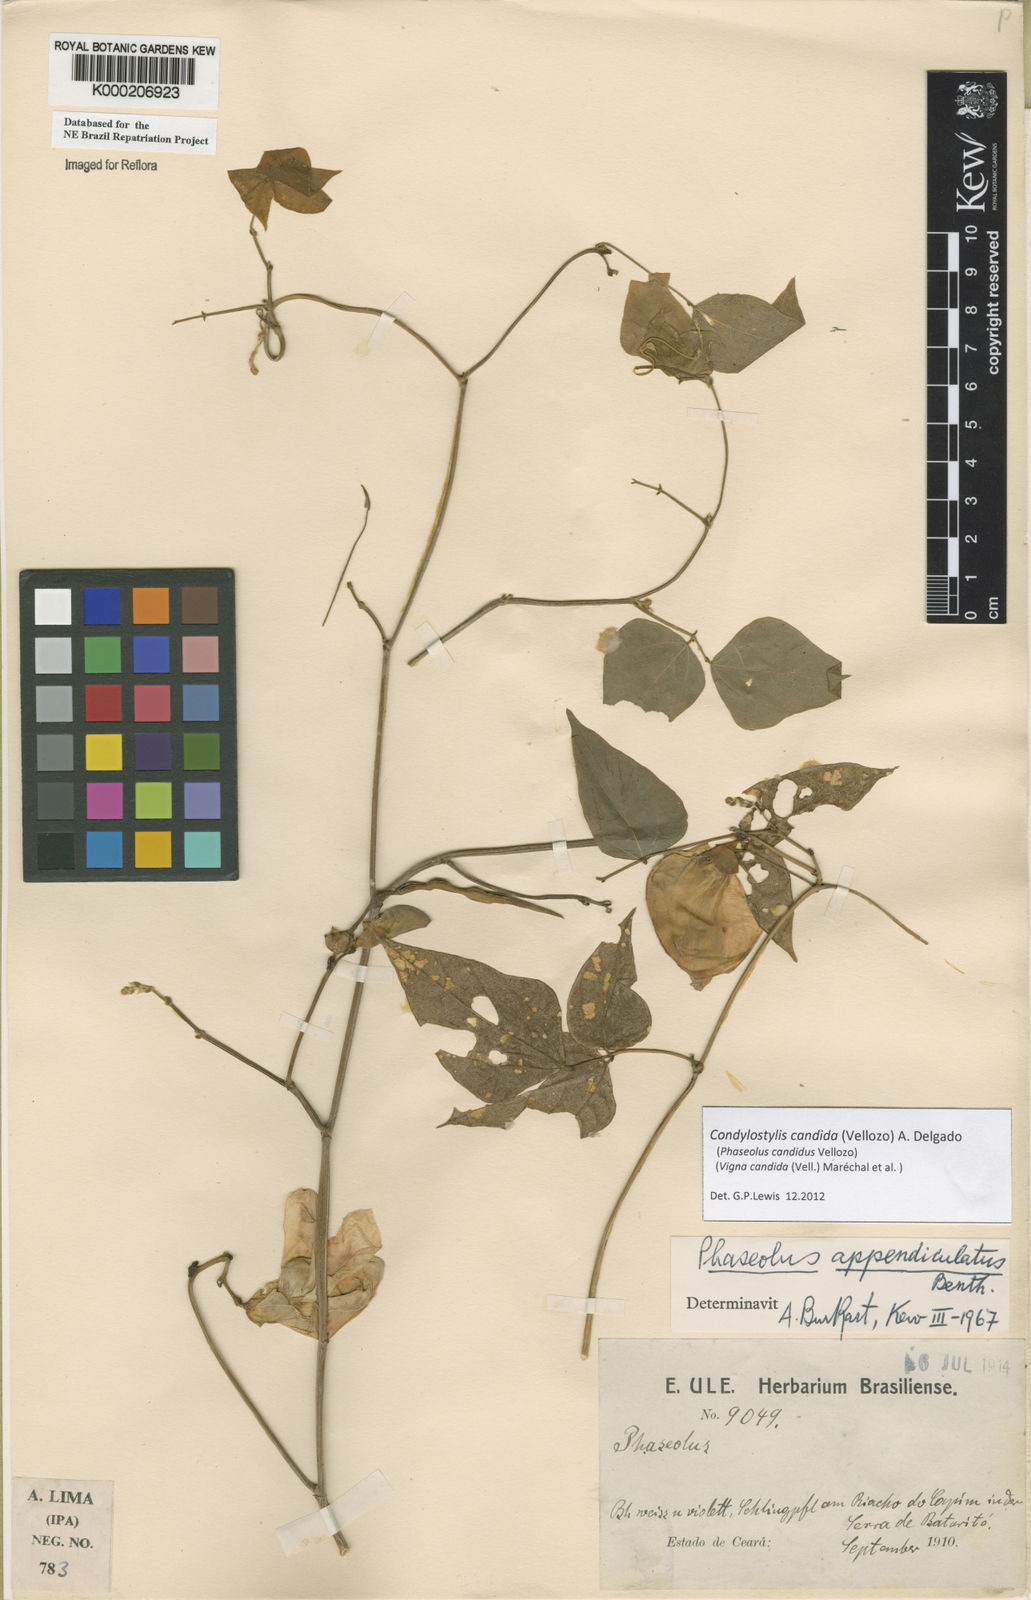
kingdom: Plantae
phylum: Tracheophyta
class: Magnoliopsida
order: Fabales
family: Fabaceae
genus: Vigna
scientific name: Vigna
